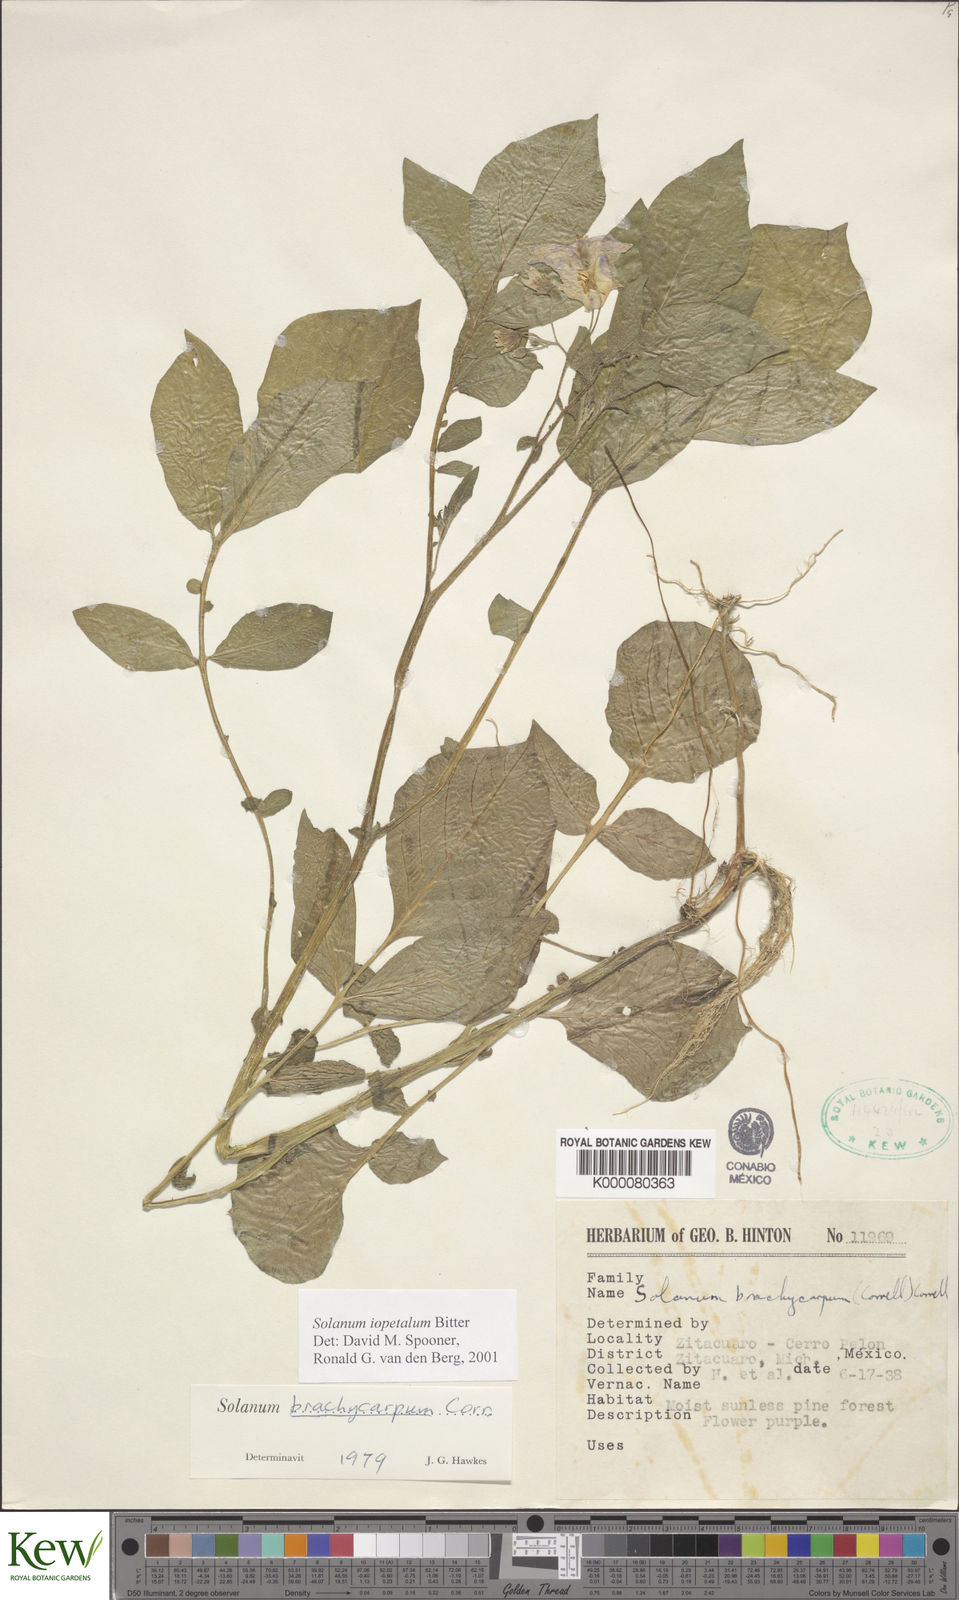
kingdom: Plantae
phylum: Tracheophyta
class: Magnoliopsida
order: Solanales
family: Solanaceae
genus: Solanum
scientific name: Solanum iopetalum
